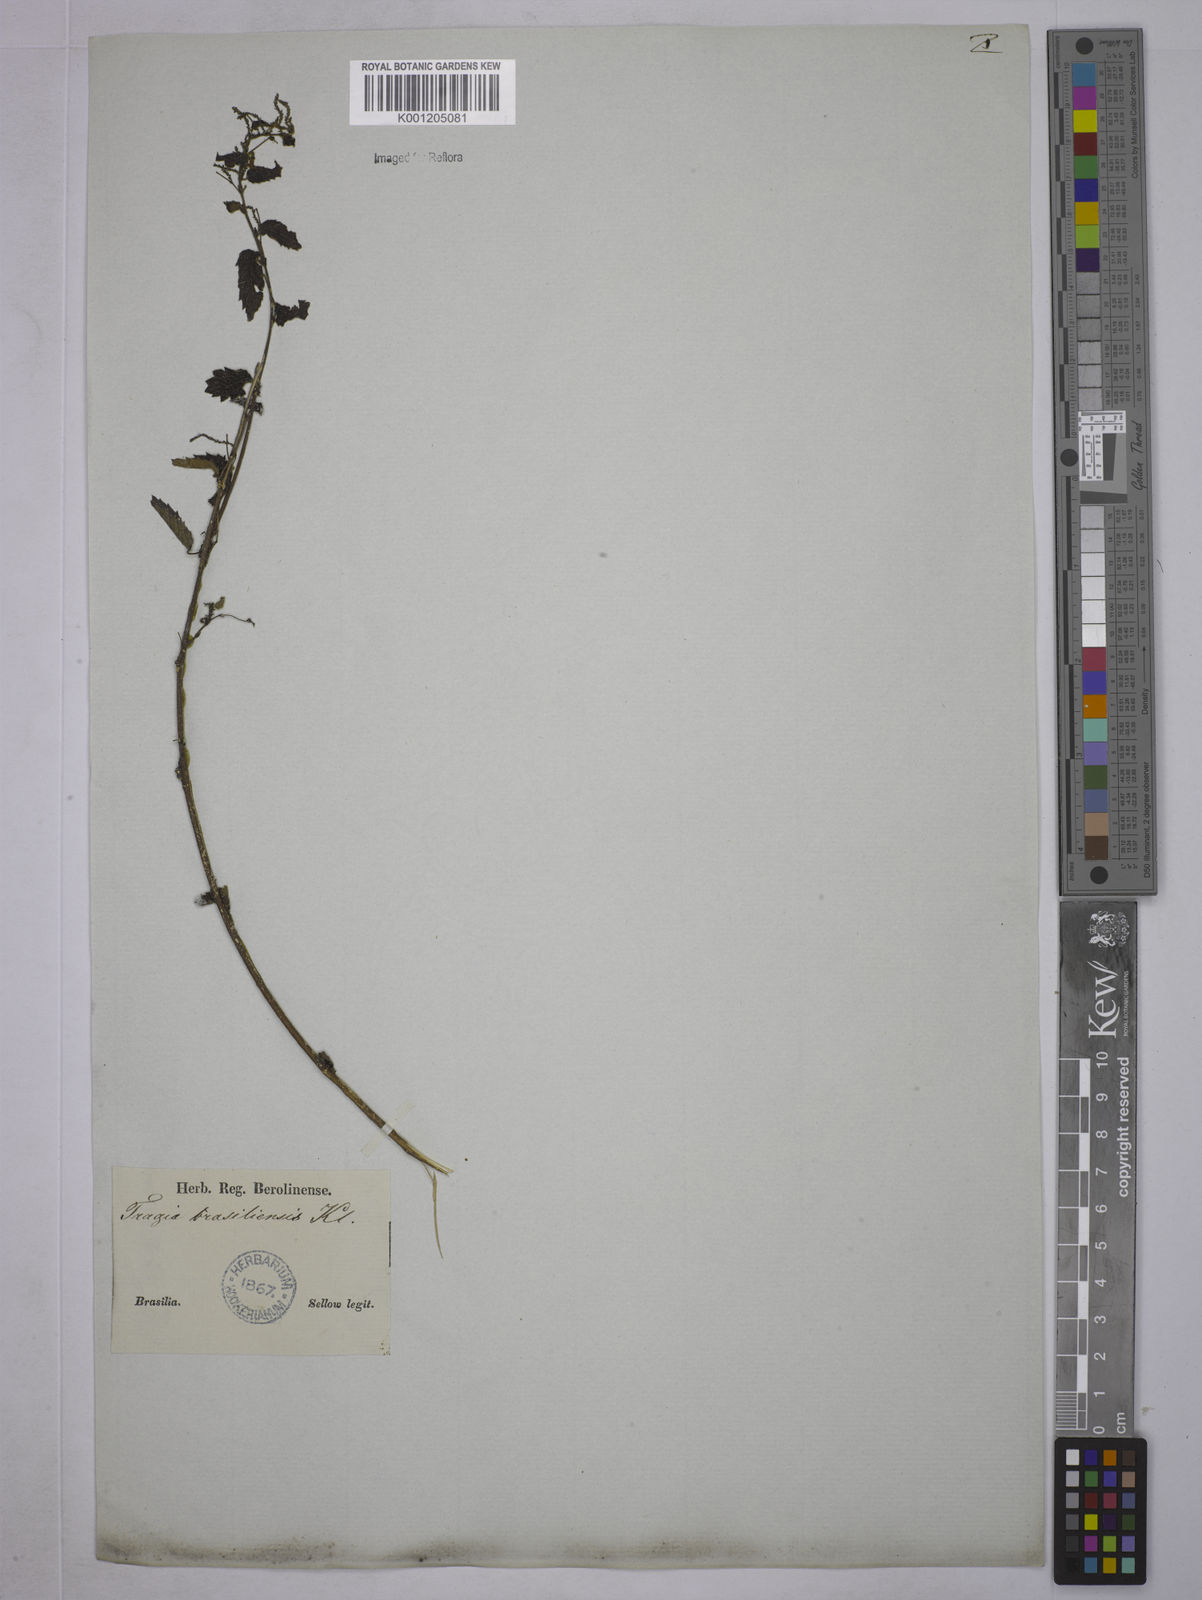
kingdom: Plantae
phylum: Tracheophyta
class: Magnoliopsida
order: Malpighiales
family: Euphorbiaceae
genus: Tragia
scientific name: Tragia
